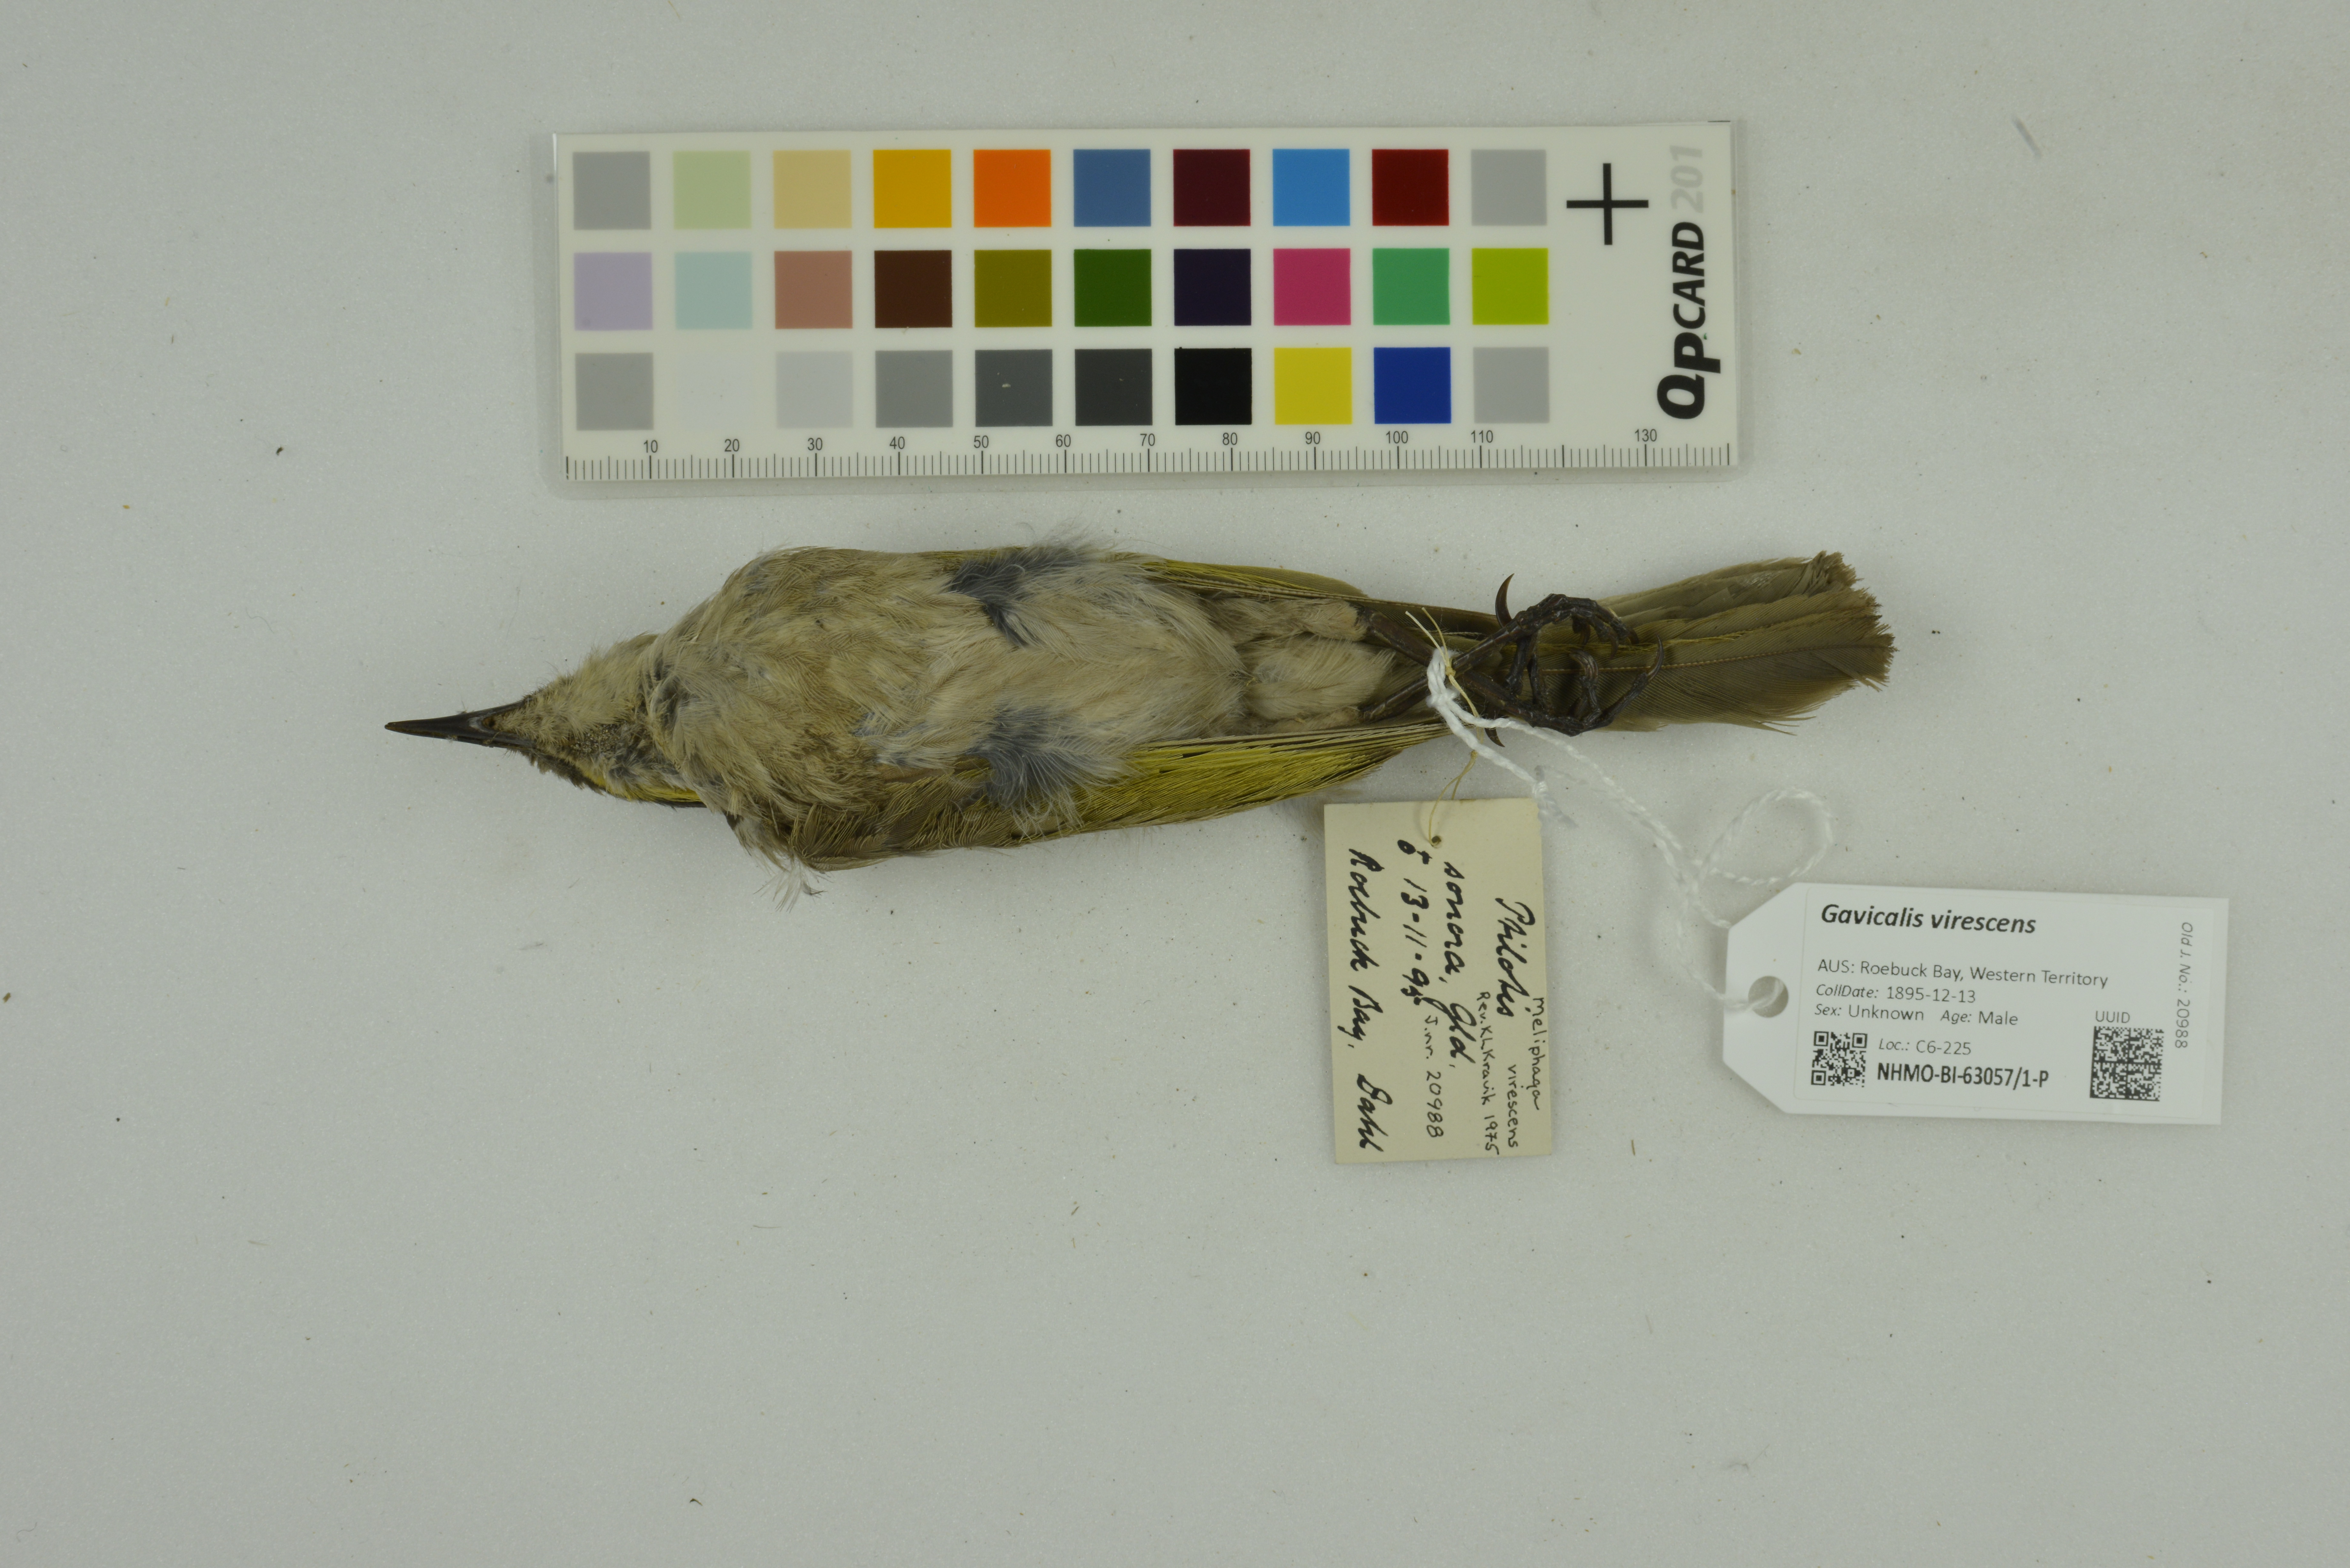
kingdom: Animalia
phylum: Chordata
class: Aves
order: Passeriformes
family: Meliphagidae
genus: Gavicalis
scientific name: Gavicalis virescens
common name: Singing honeyeater
